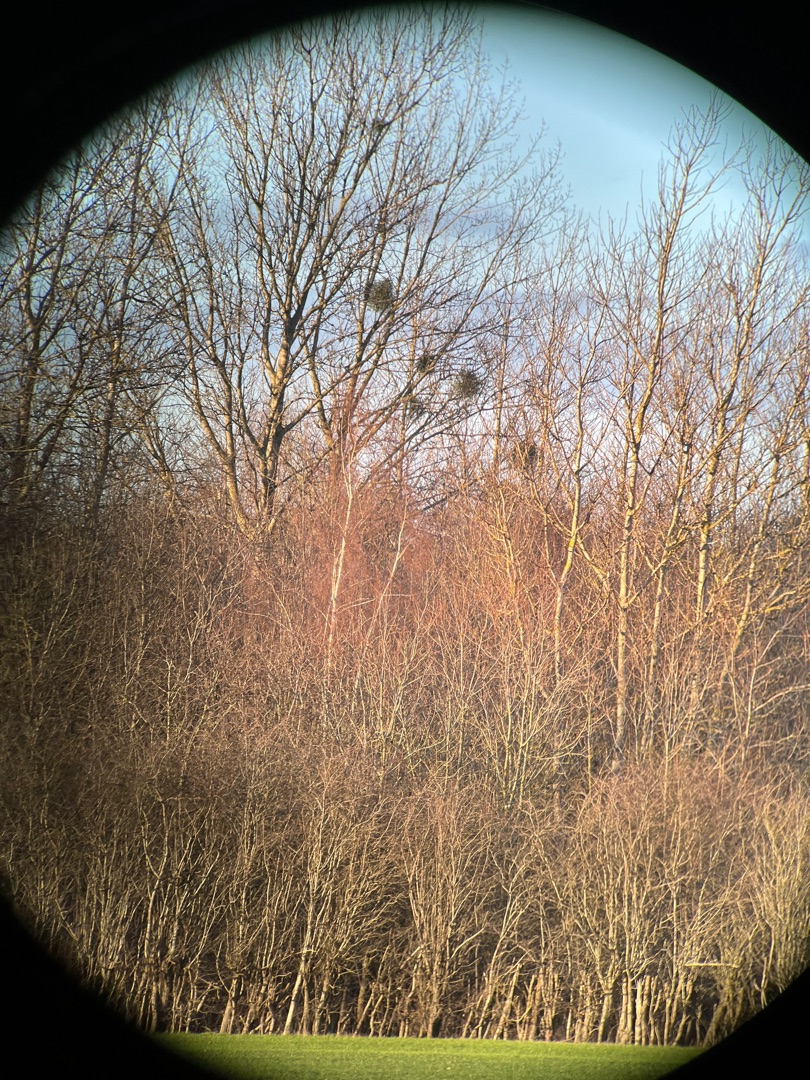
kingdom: Plantae
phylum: Tracheophyta
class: Magnoliopsida
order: Santalales
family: Viscaceae
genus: Viscum
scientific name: Viscum album
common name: Mistelten
